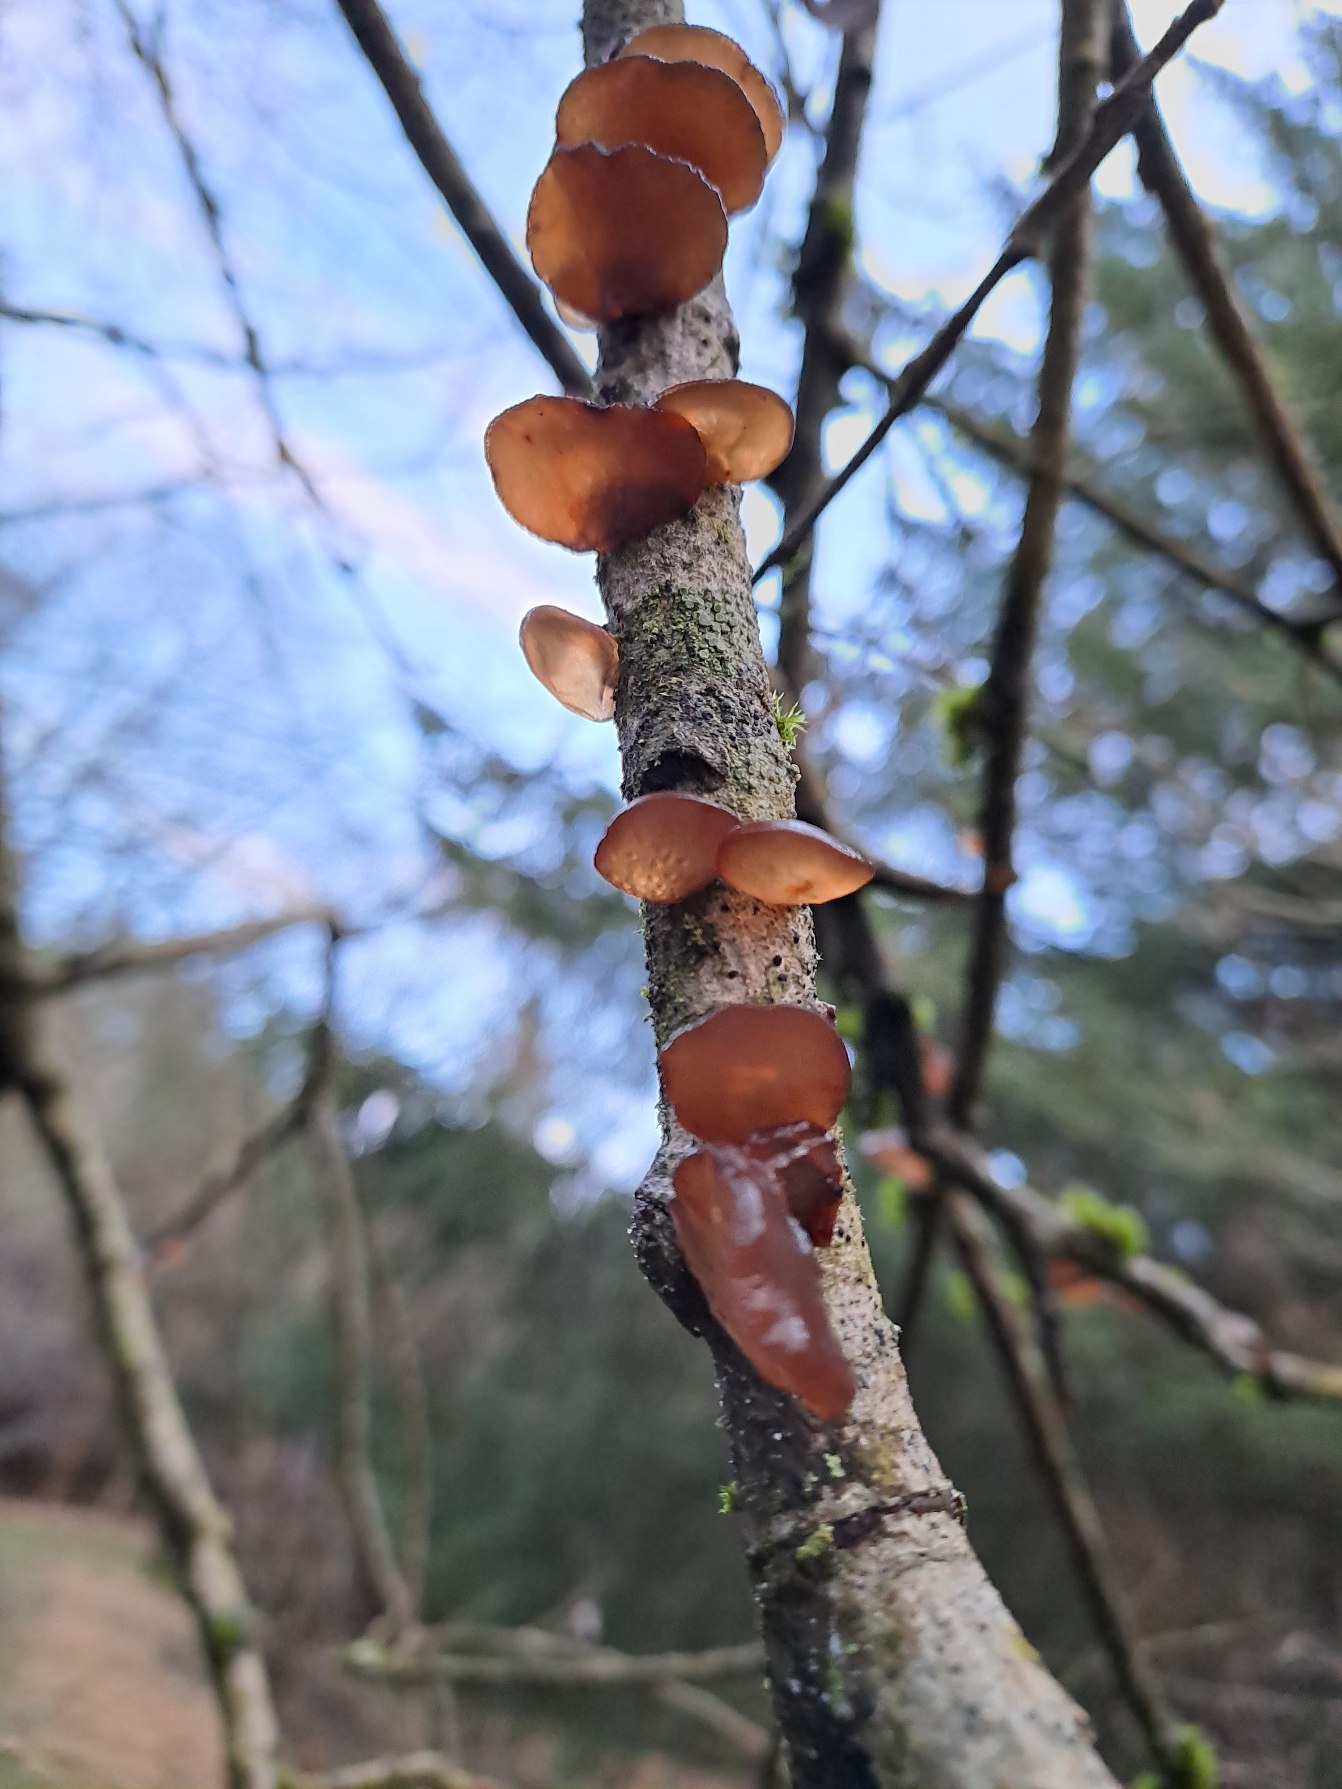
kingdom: Fungi
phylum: Basidiomycota
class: Agaricomycetes
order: Auriculariales
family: Auriculariaceae
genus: Exidia
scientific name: Exidia recisa
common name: Pile-bævretop
